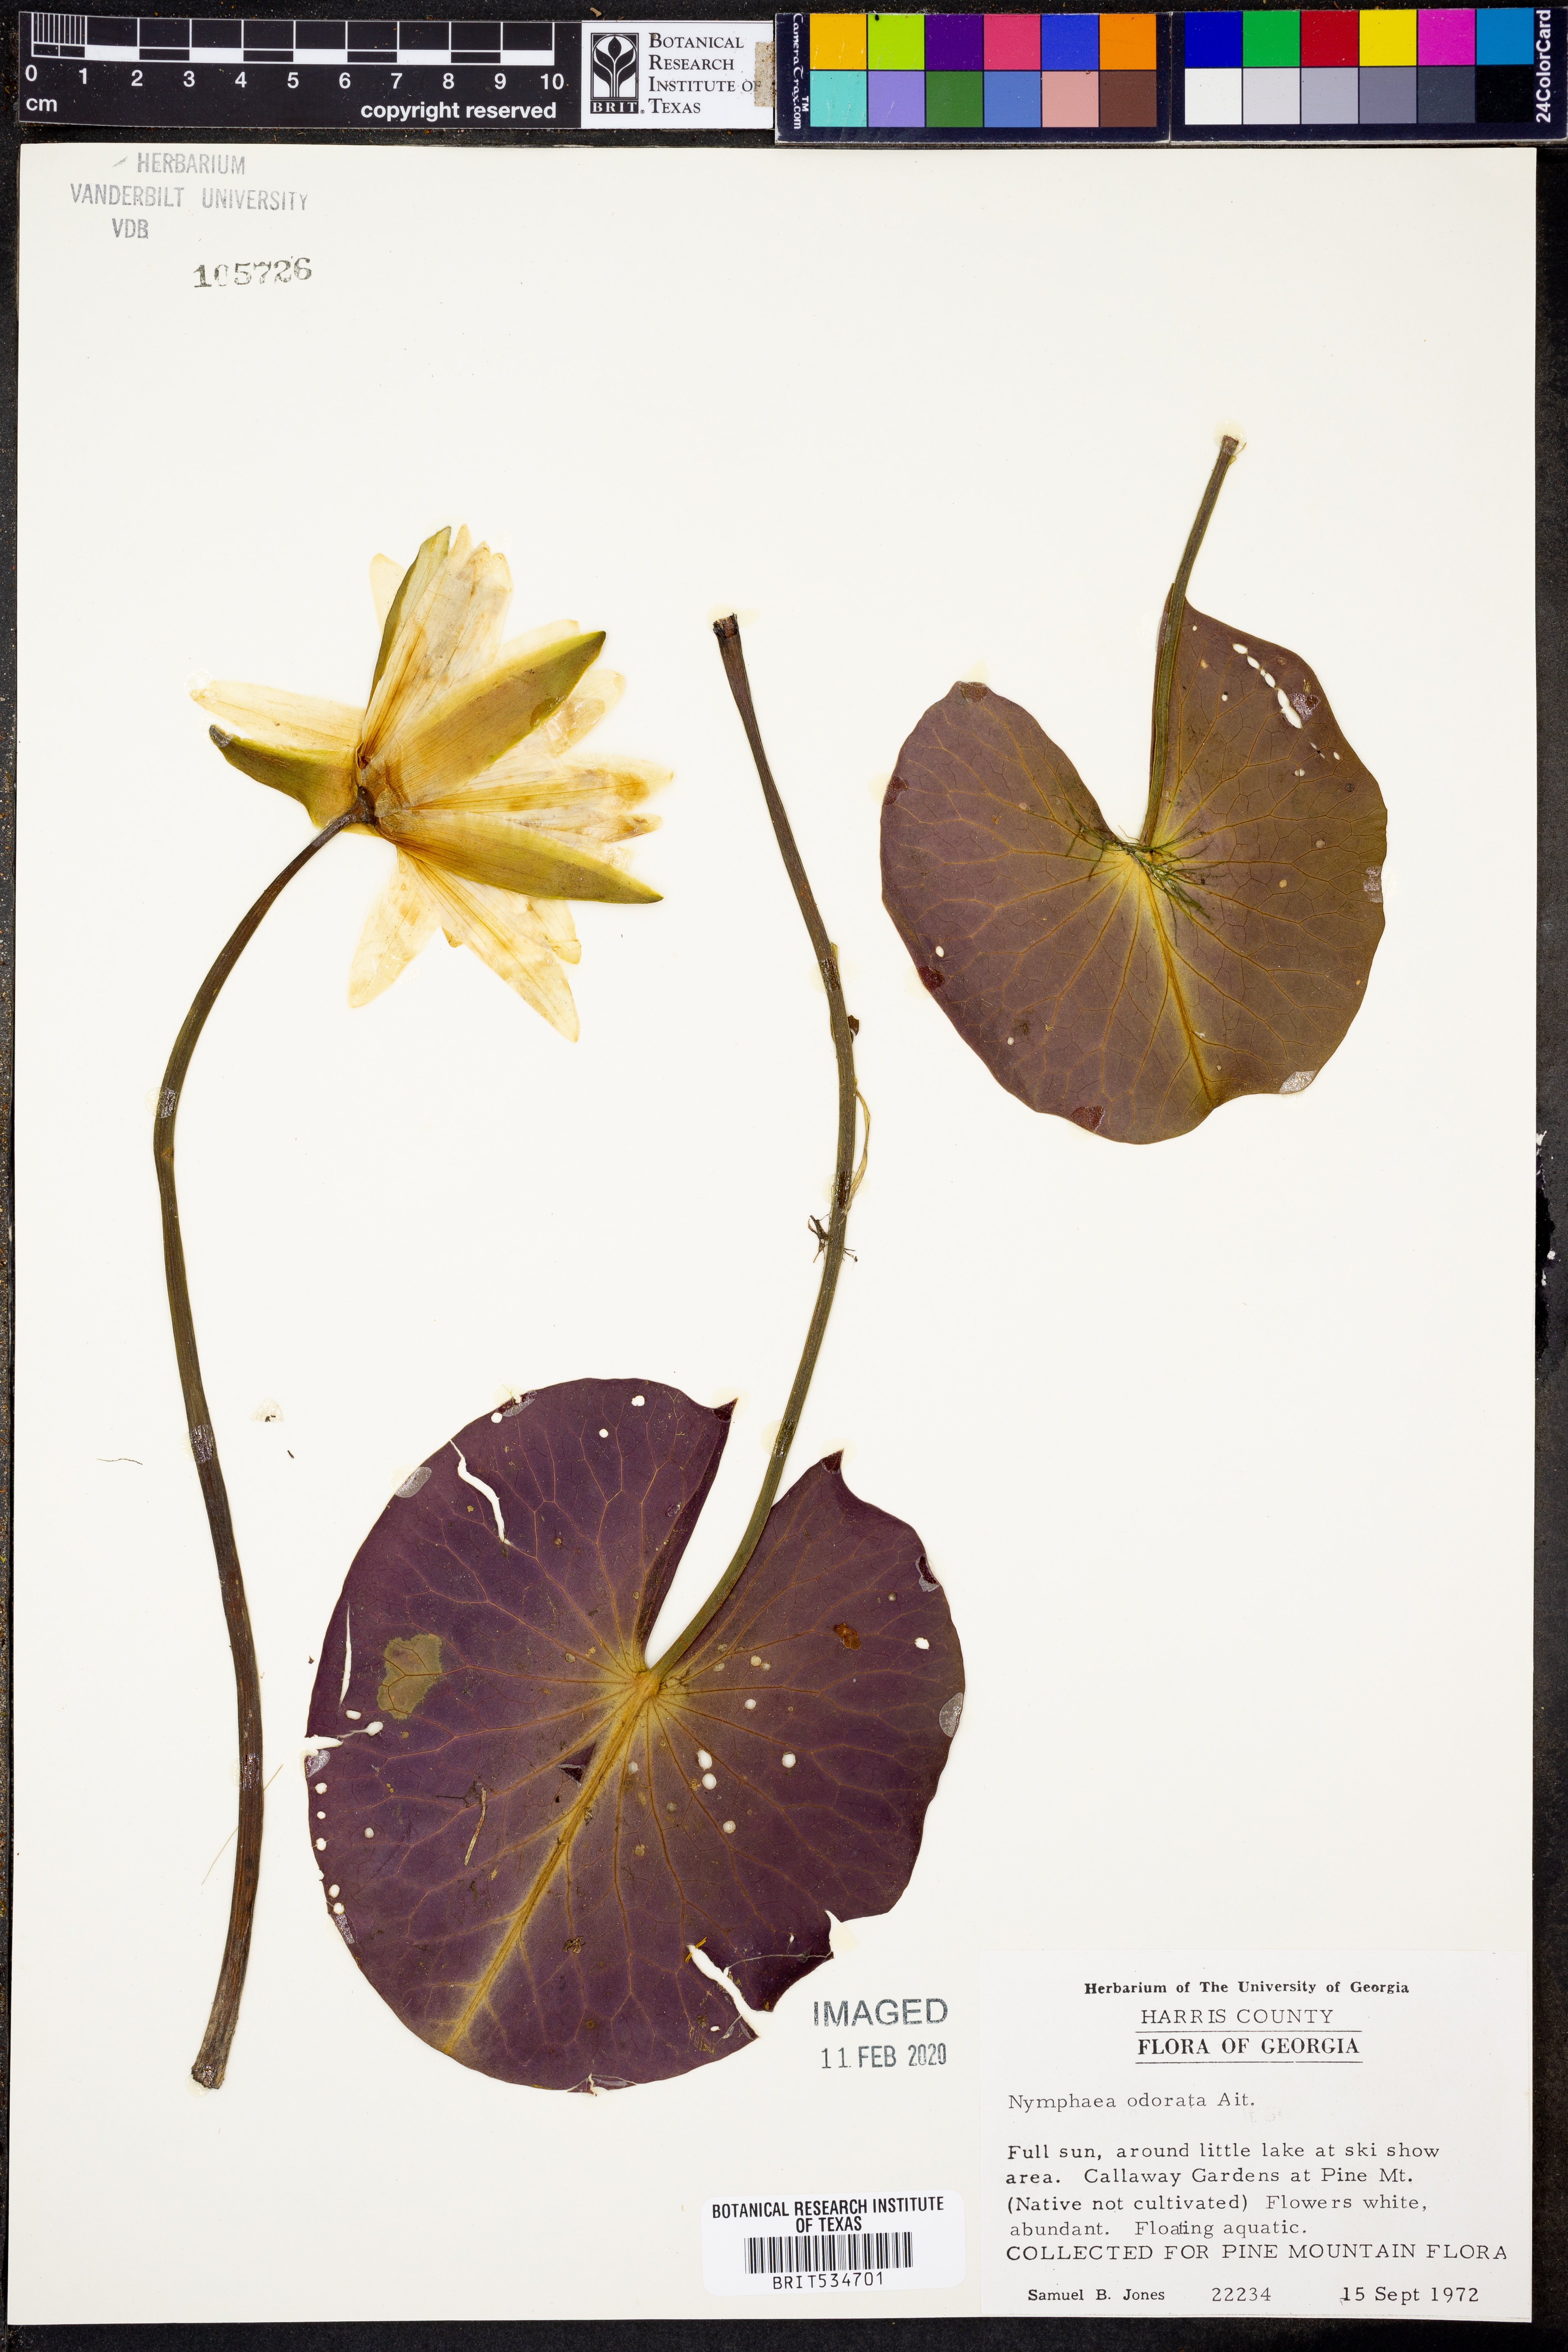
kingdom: Plantae
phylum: Tracheophyta
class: Magnoliopsida
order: Nymphaeales
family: Nymphaeaceae
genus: Nymphaea
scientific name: Nymphaea odorata
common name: Fragrant water-lily
